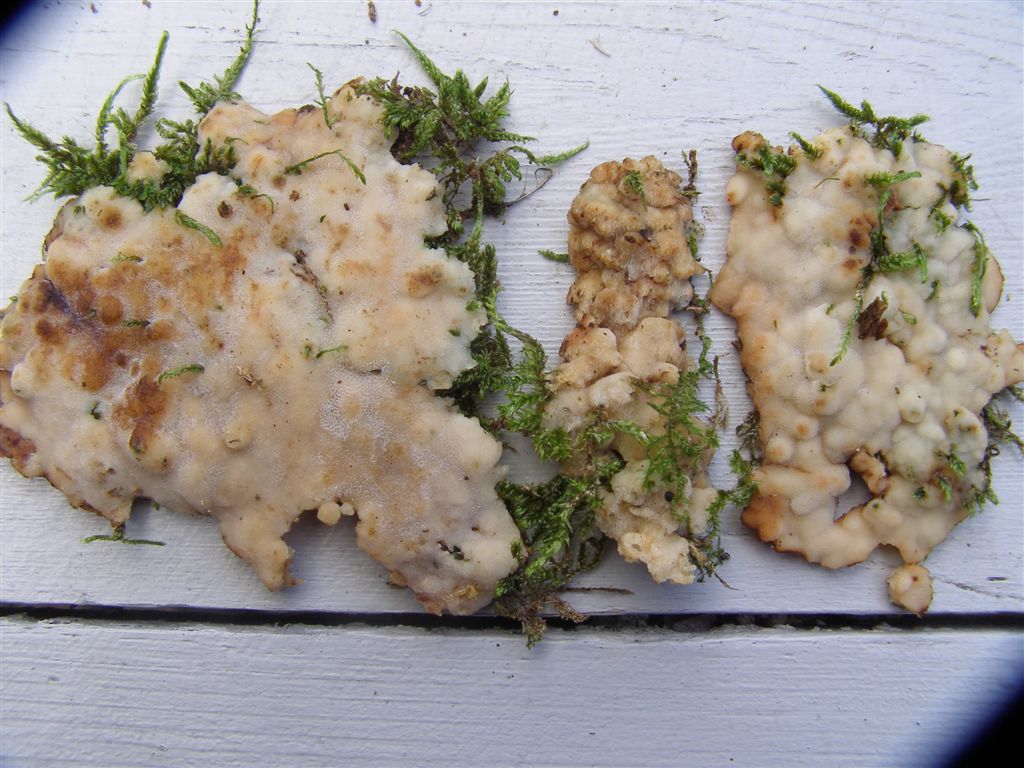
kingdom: Fungi
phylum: Basidiomycota
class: Agaricomycetes
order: Polyporales
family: Meripilaceae
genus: Rigidoporus
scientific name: Rigidoporus sanguinolentus
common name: blod-skorpeporesvamp
